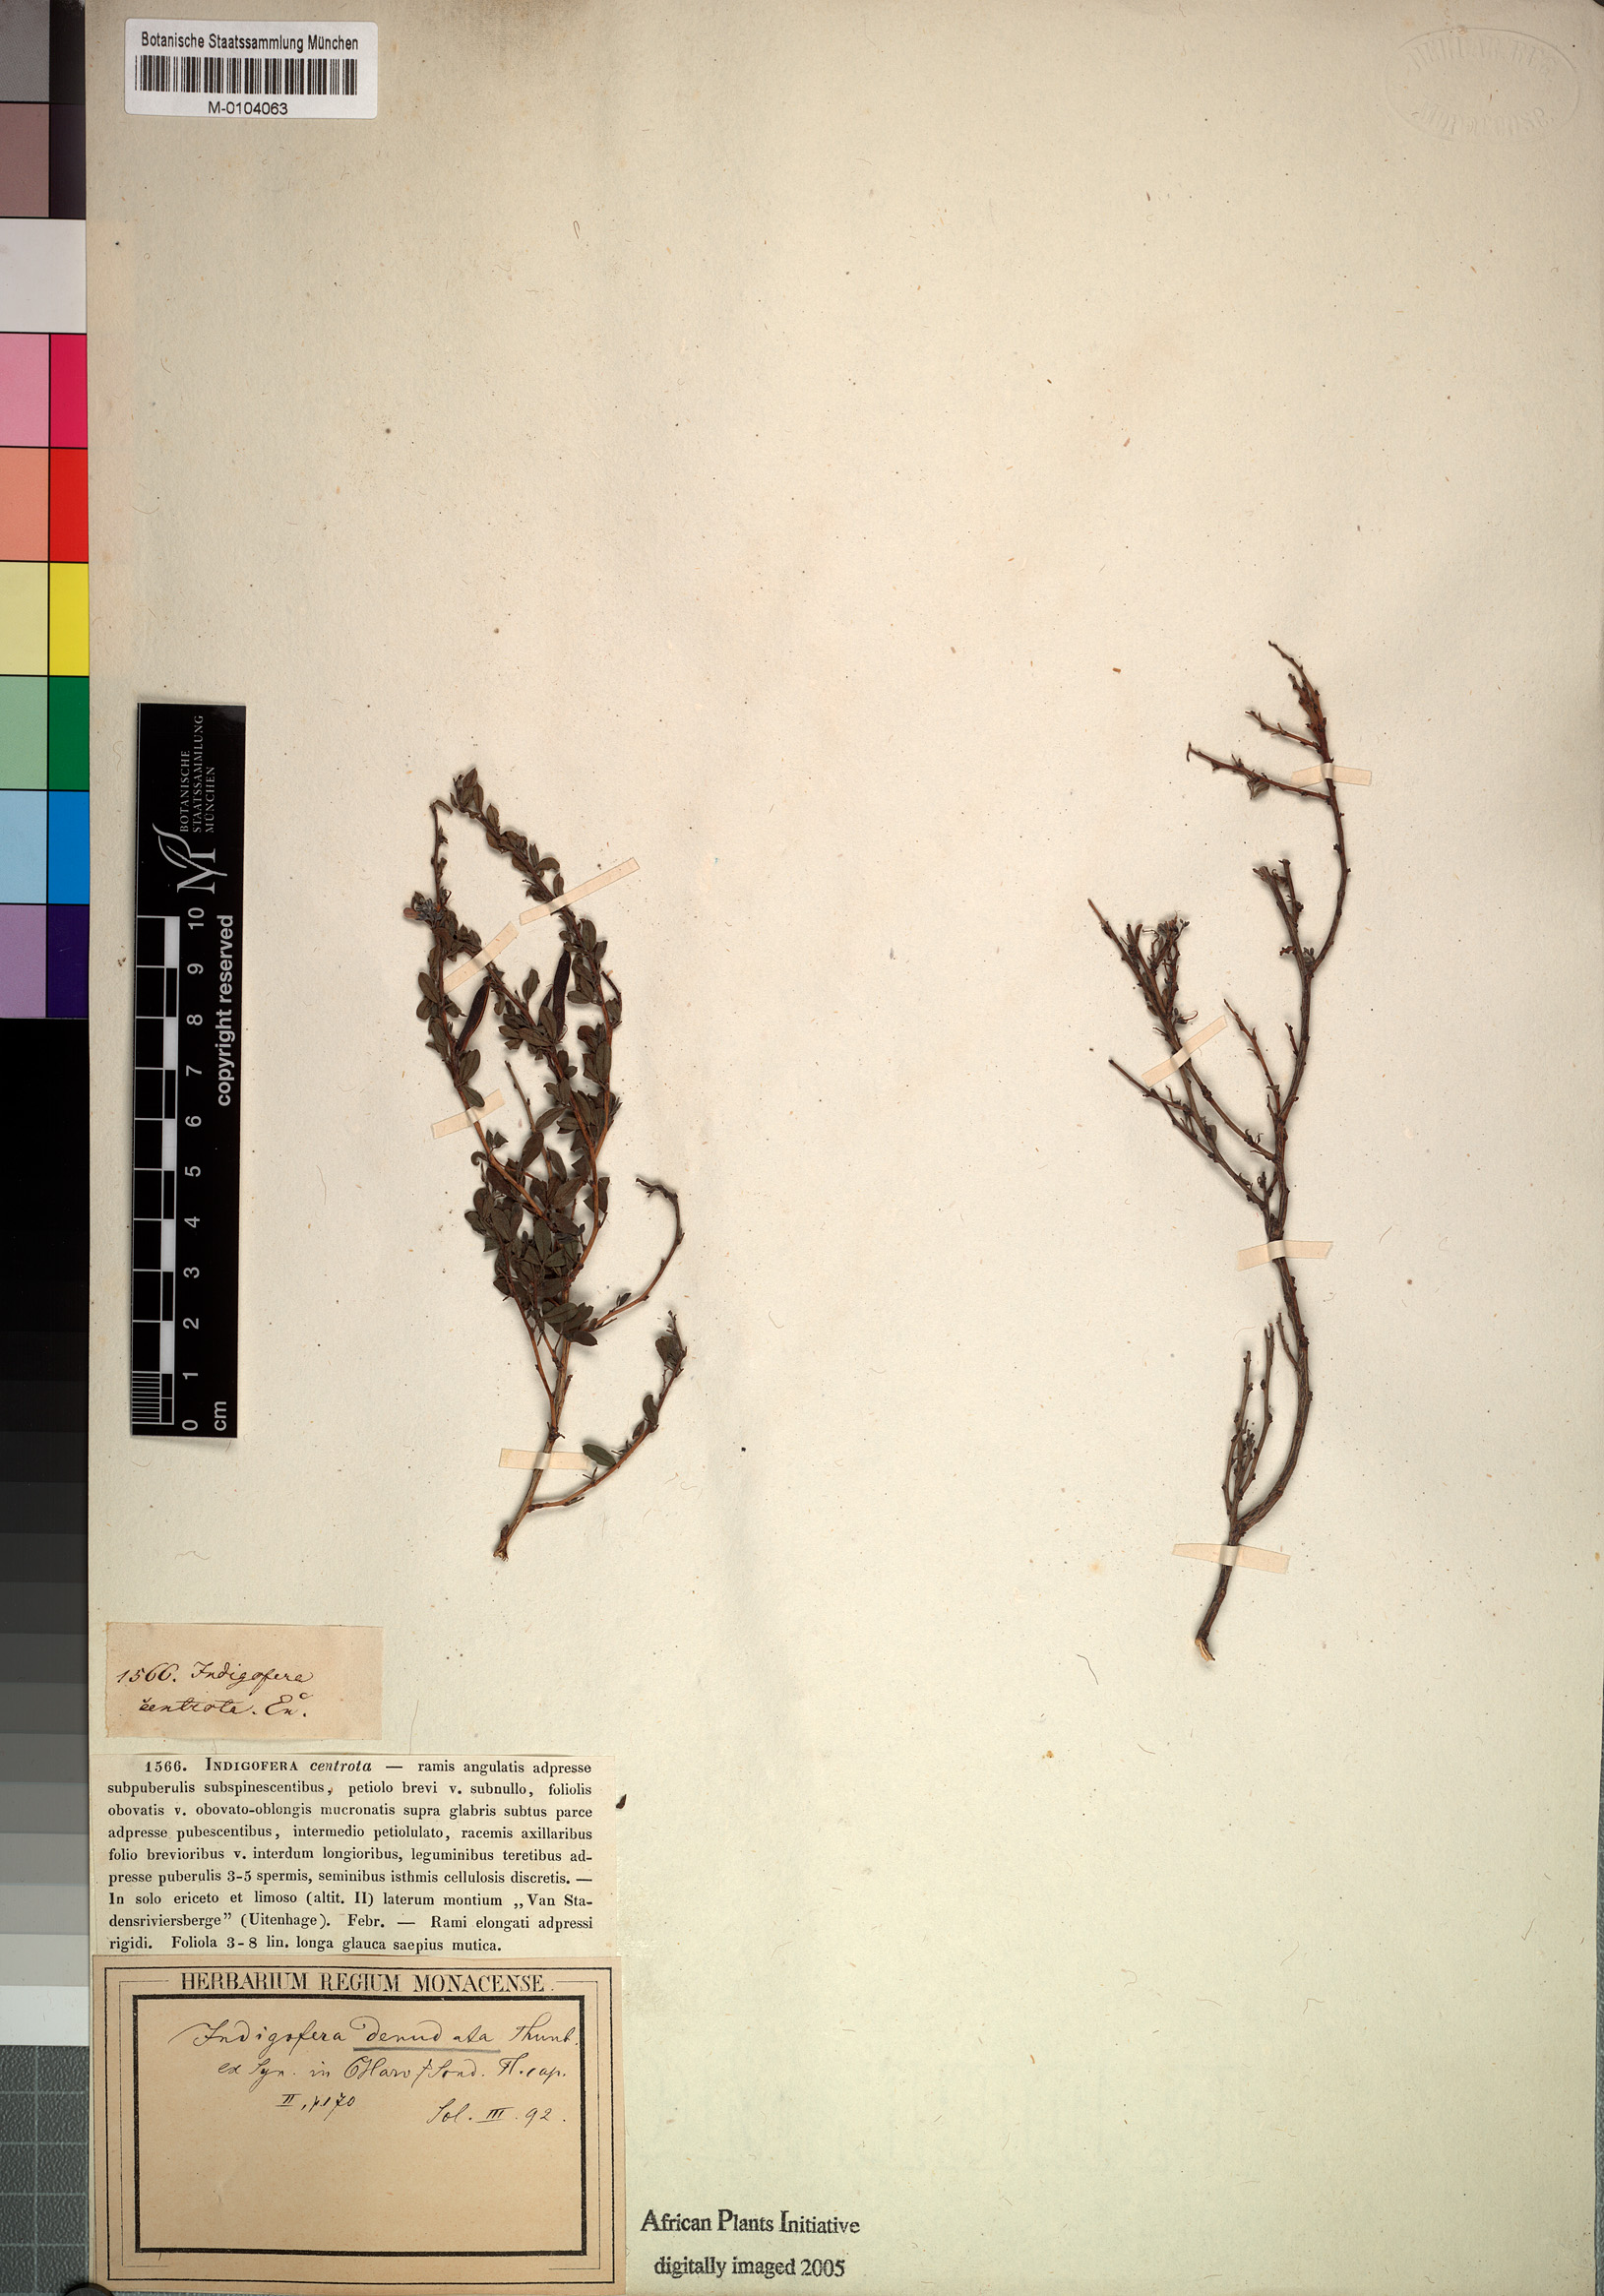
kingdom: Plantae
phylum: Tracheophyta
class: Magnoliopsida
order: Fabales
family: Fabaceae
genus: Indigofera
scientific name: Indigofera denudata
